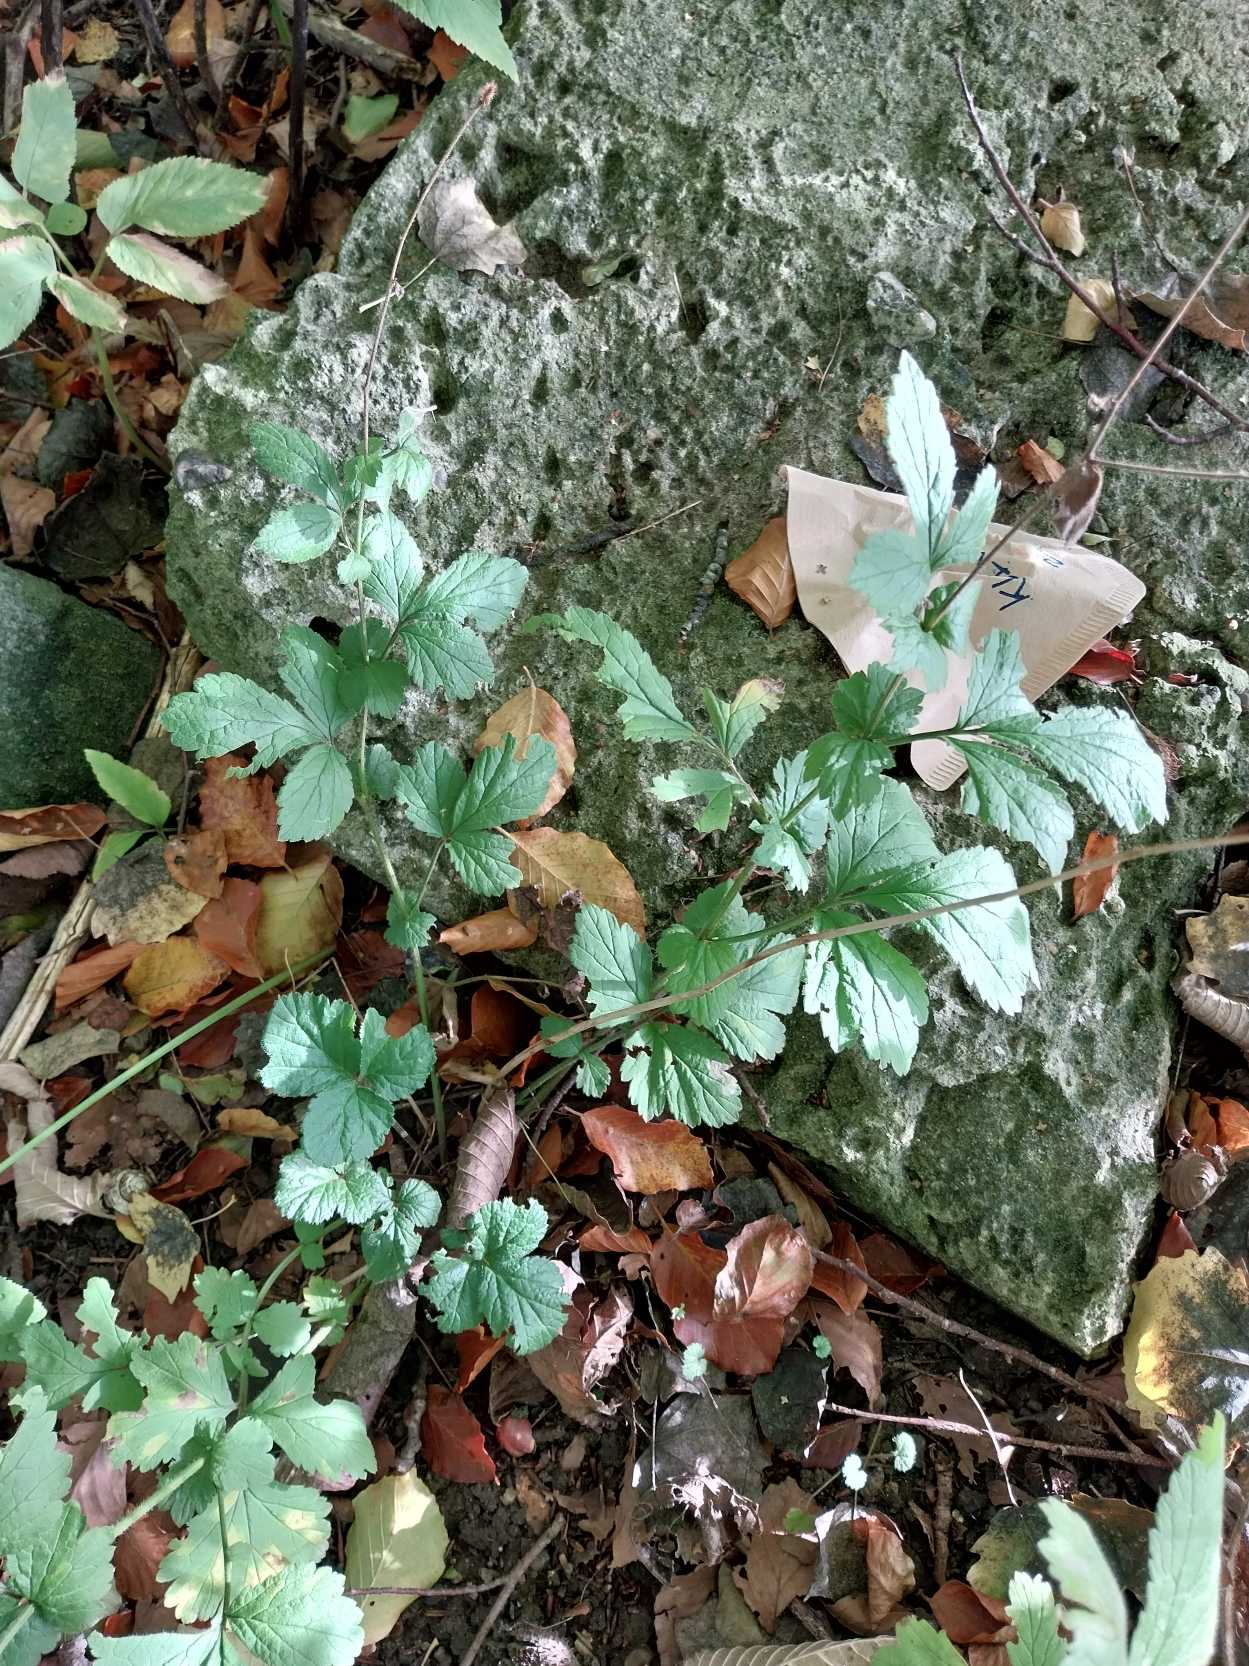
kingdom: Plantae
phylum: Tracheophyta
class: Magnoliopsida
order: Rosales
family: Rosaceae
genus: Geum
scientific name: Geum urbanum
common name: Feber-nellikerod
